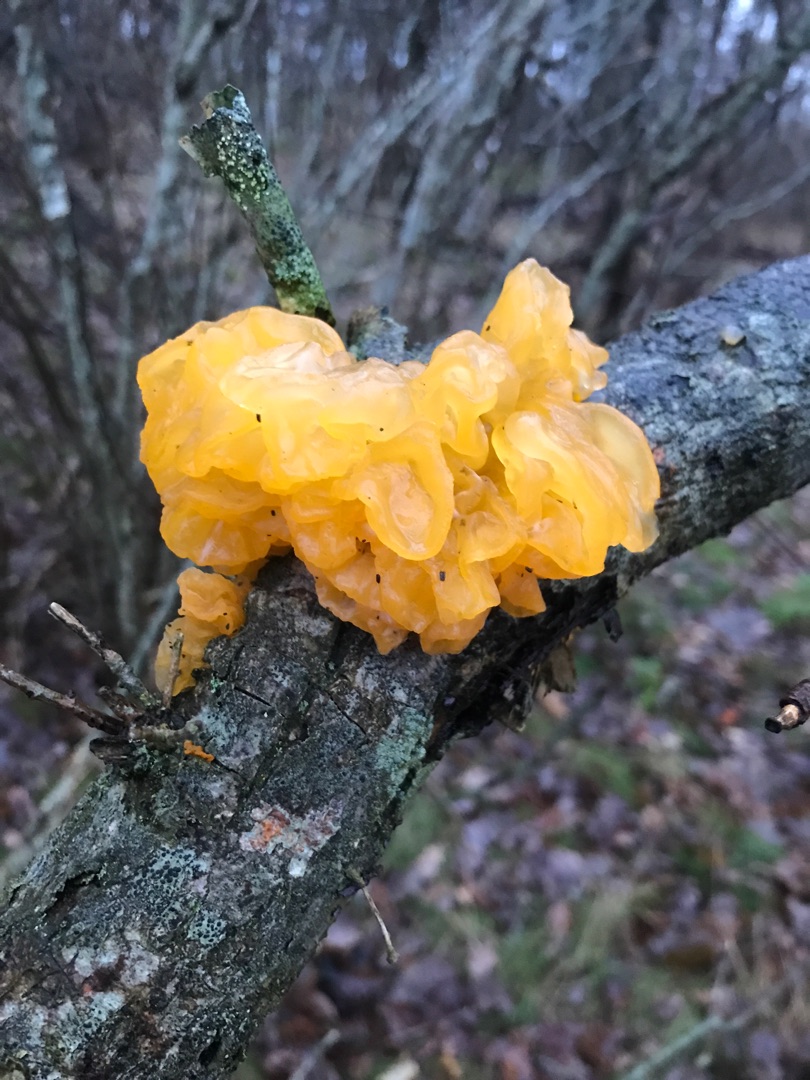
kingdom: Fungi
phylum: Basidiomycota
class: Tremellomycetes
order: Tremellales
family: Tremellaceae
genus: Tremella
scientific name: Tremella mesenterica
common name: Gul bævresvamp
